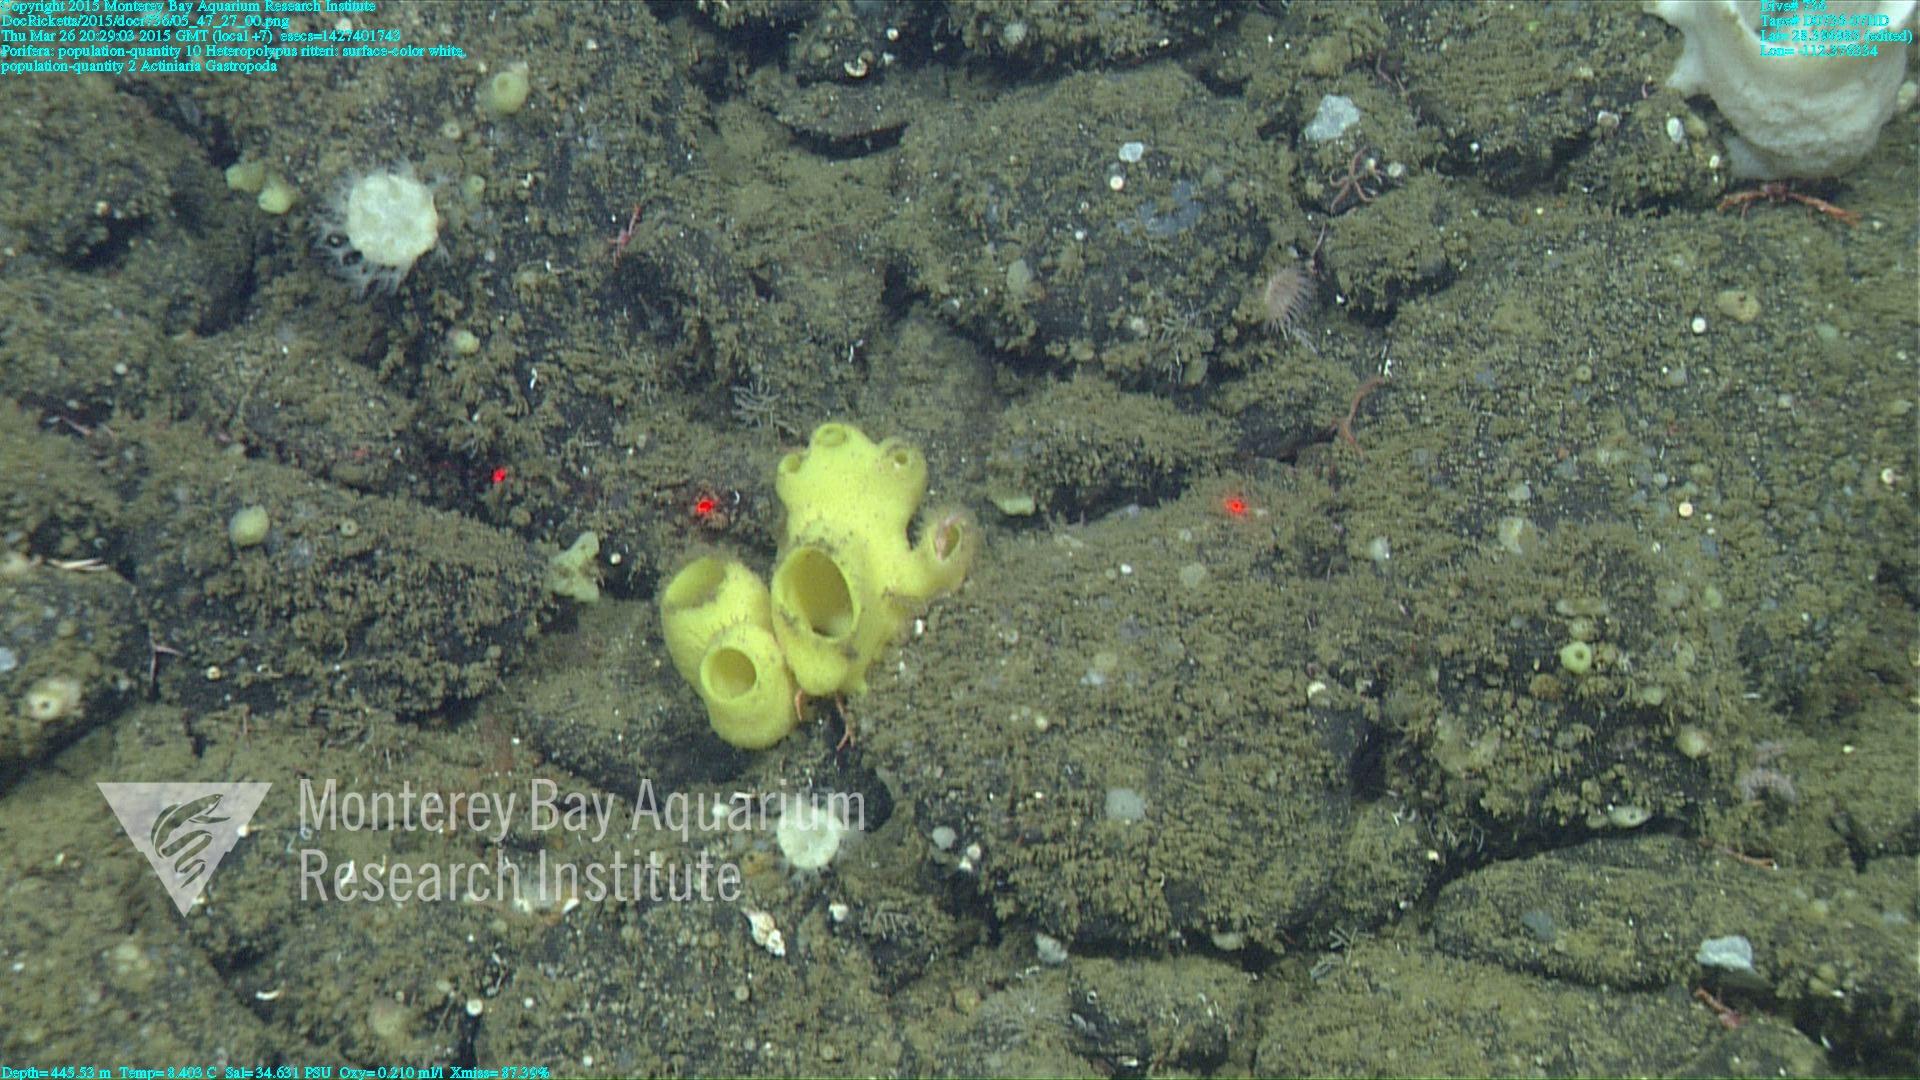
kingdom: Animalia
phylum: Cnidaria
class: Anthozoa
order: Scleralcyonacea
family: Coralliidae
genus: Heteropolypus
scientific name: Heteropolypus ritteri
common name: Ritter's soft coral
